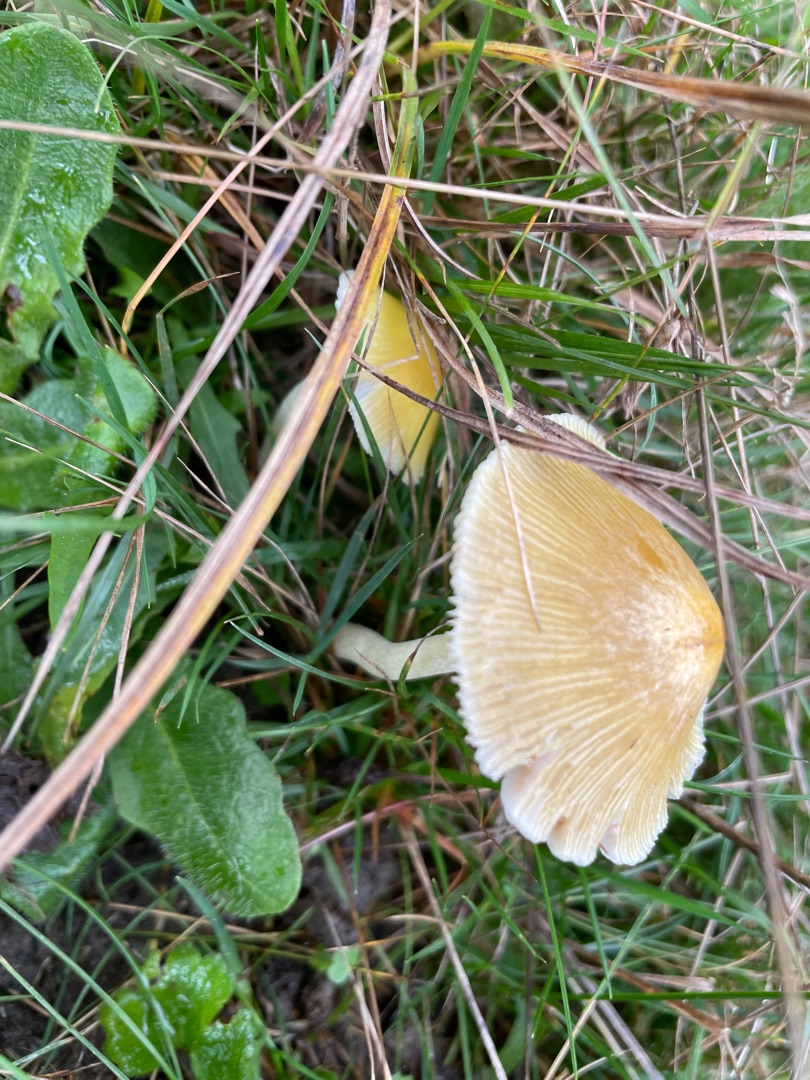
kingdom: Fungi
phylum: Basidiomycota
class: Agaricomycetes
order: Agaricales
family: Bolbitiaceae
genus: Bolbitius
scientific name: Bolbitius titubans
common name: Almindelig gulhat
